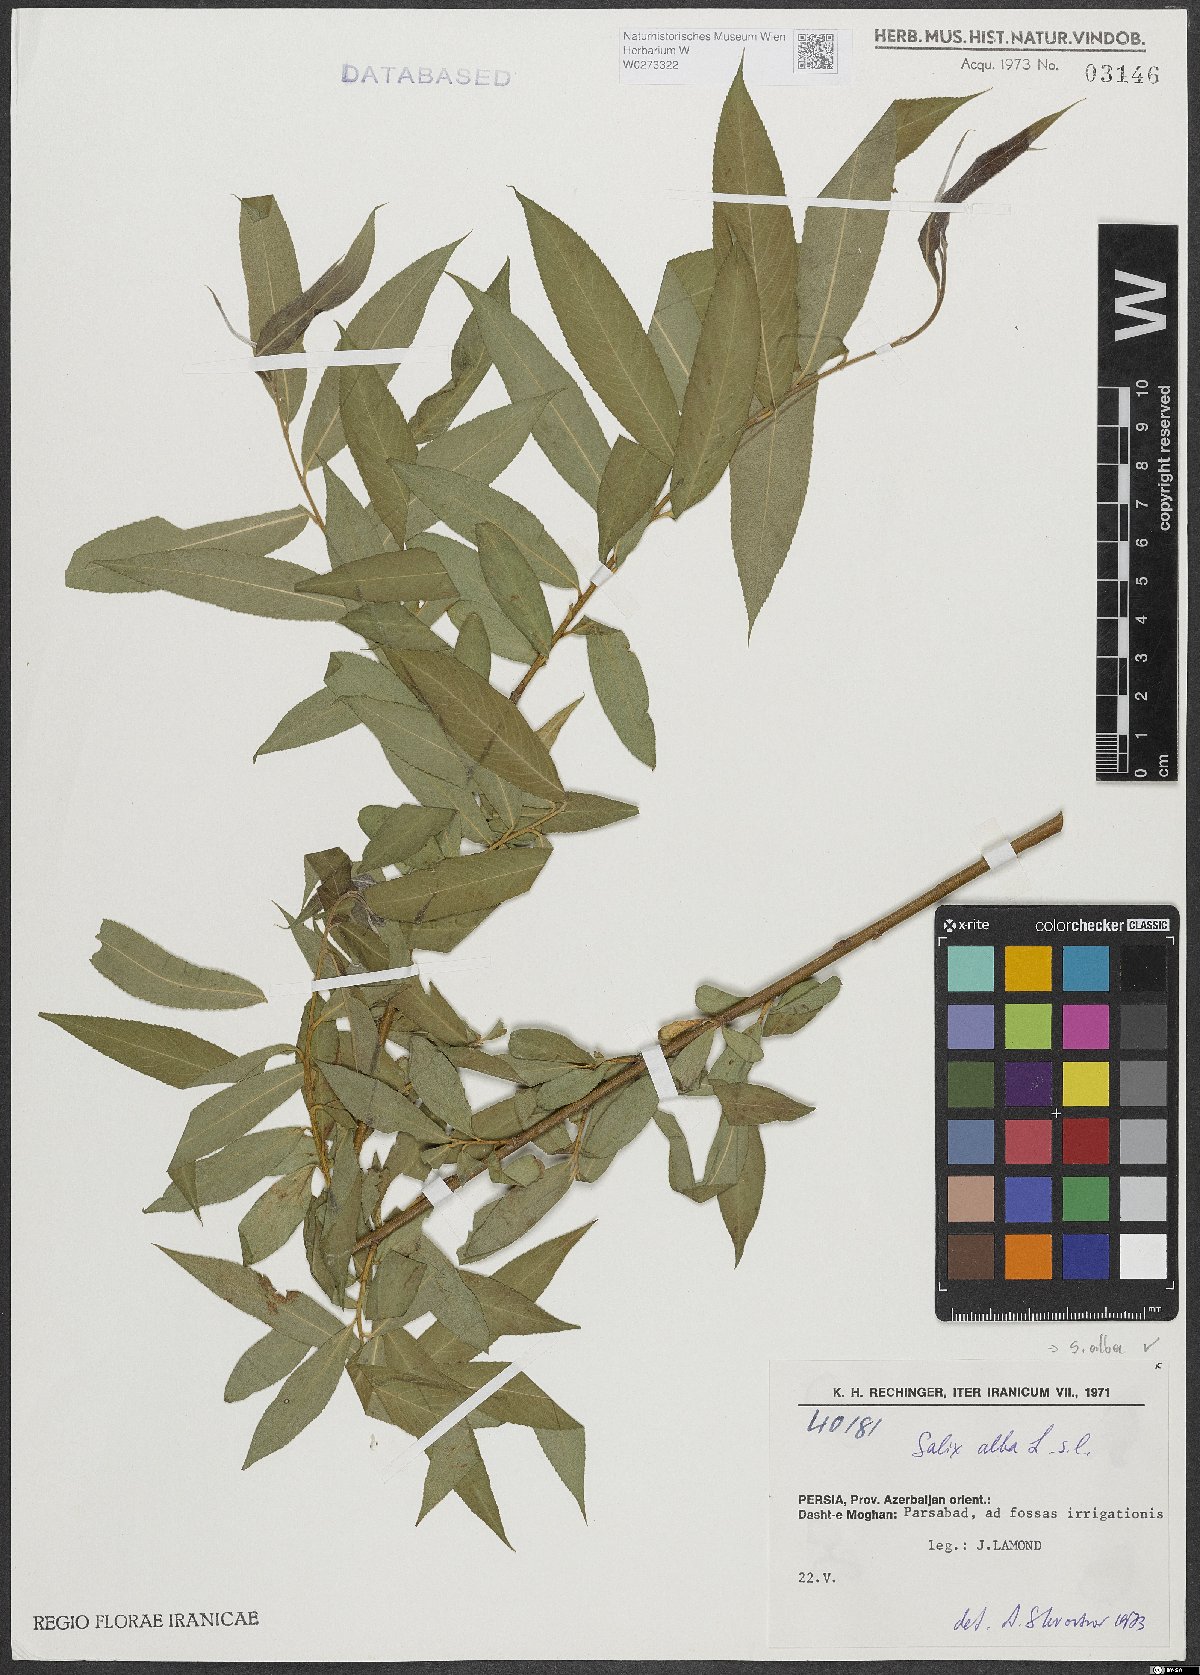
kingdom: Plantae
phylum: Tracheophyta
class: Magnoliopsida
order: Malpighiales
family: Salicaceae
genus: Salix
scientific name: Salix alba
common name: White willow
